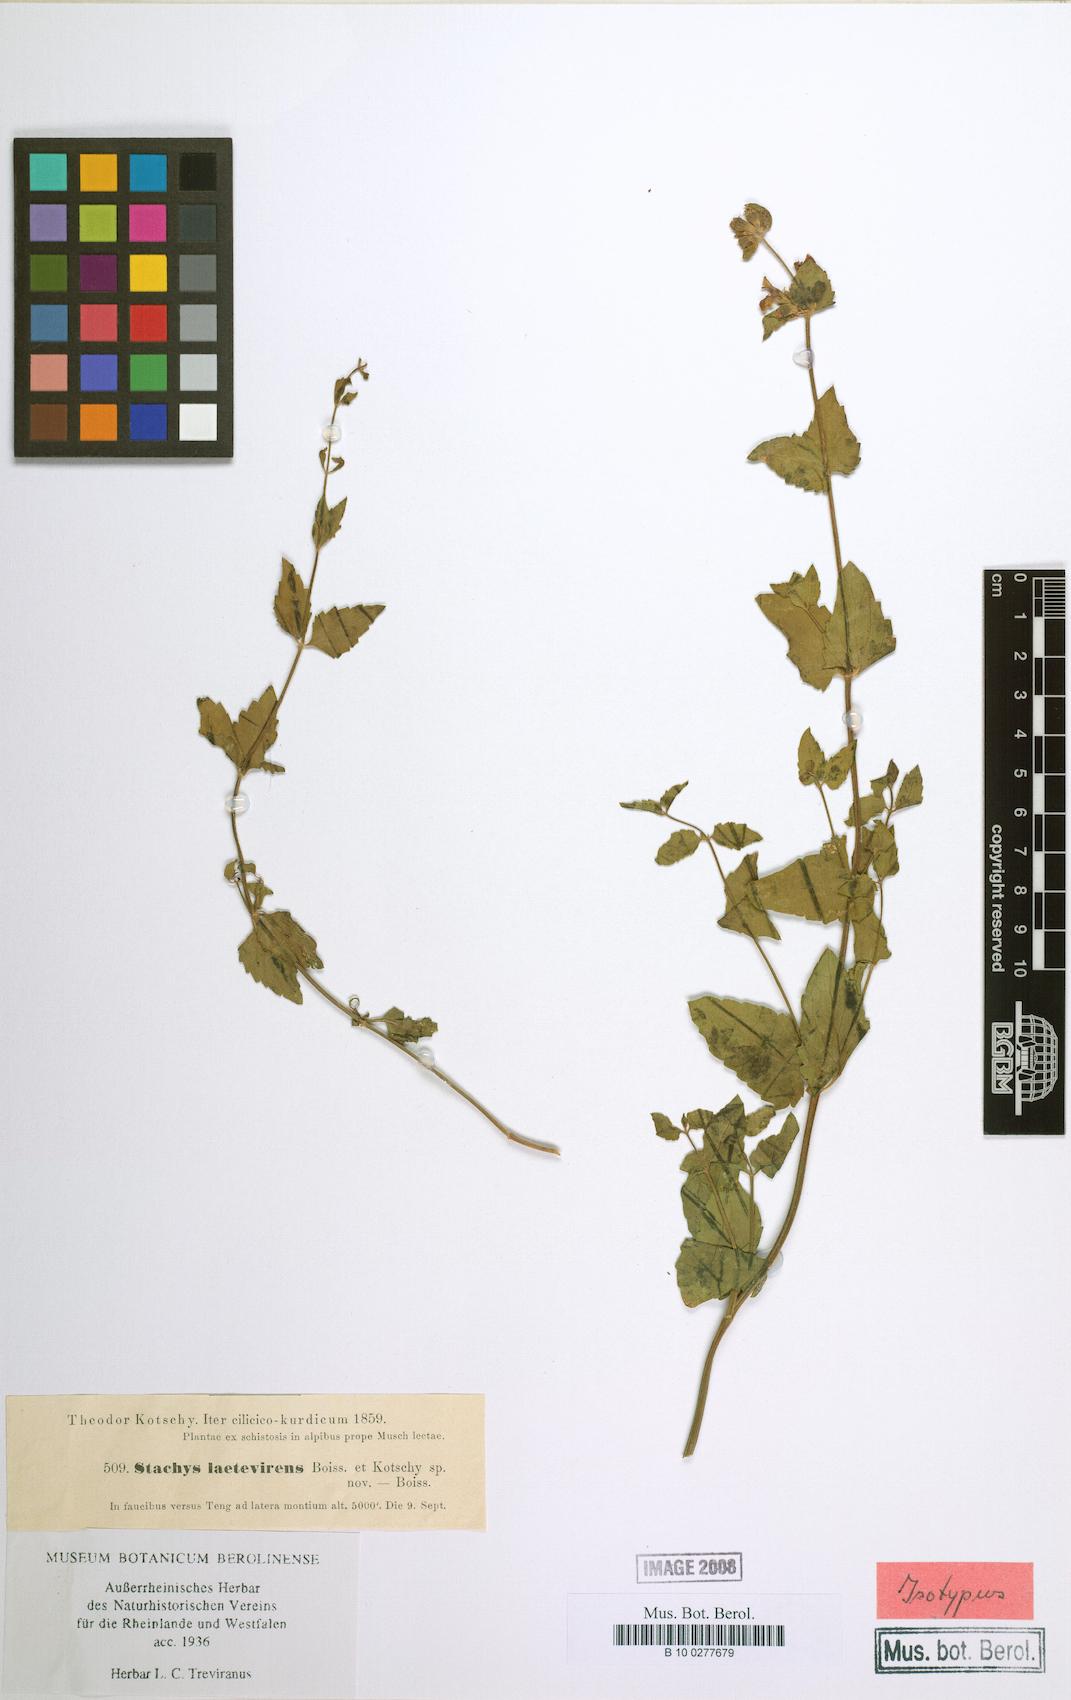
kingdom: Plantae
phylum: Tracheophyta
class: Magnoliopsida
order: Lamiales
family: Lamiaceae
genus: Stachys
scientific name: Stachys viscosa
